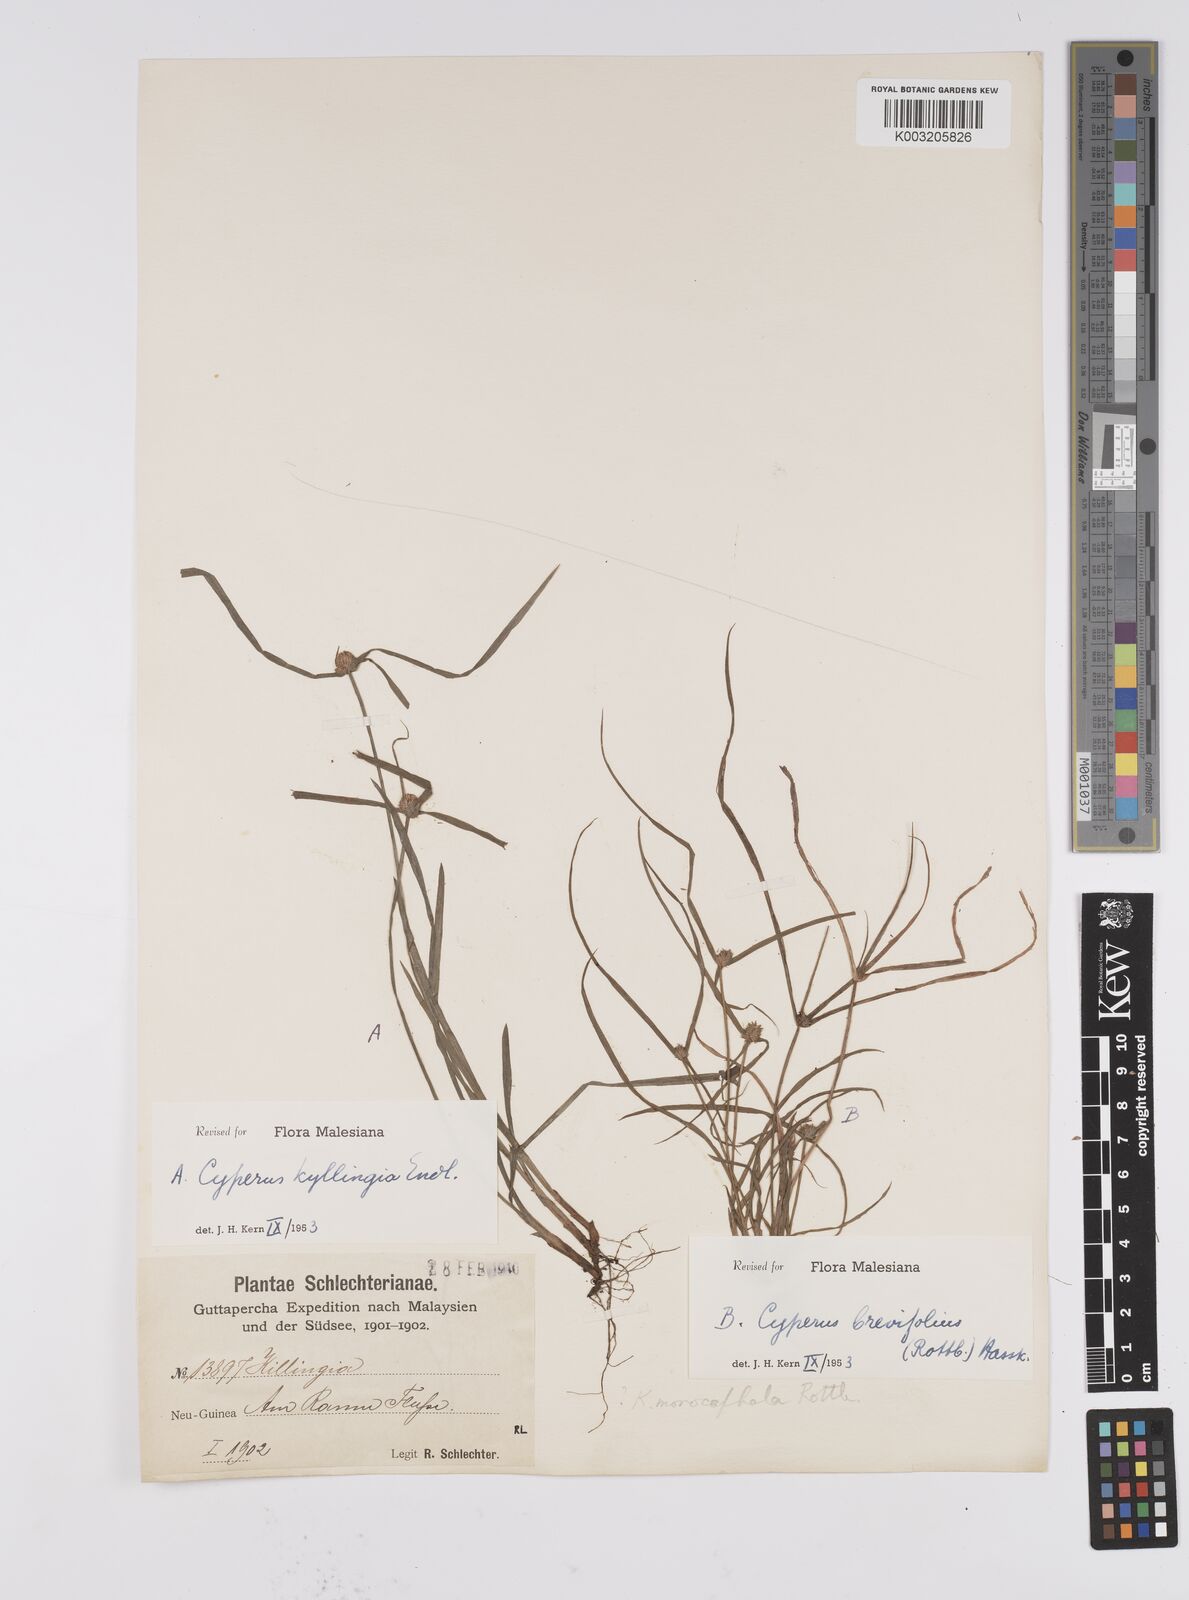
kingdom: Plantae
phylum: Tracheophyta
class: Liliopsida
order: Poales
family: Cyperaceae
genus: Cyperus
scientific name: Cyperus brevifolius
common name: Globe kyllinga
